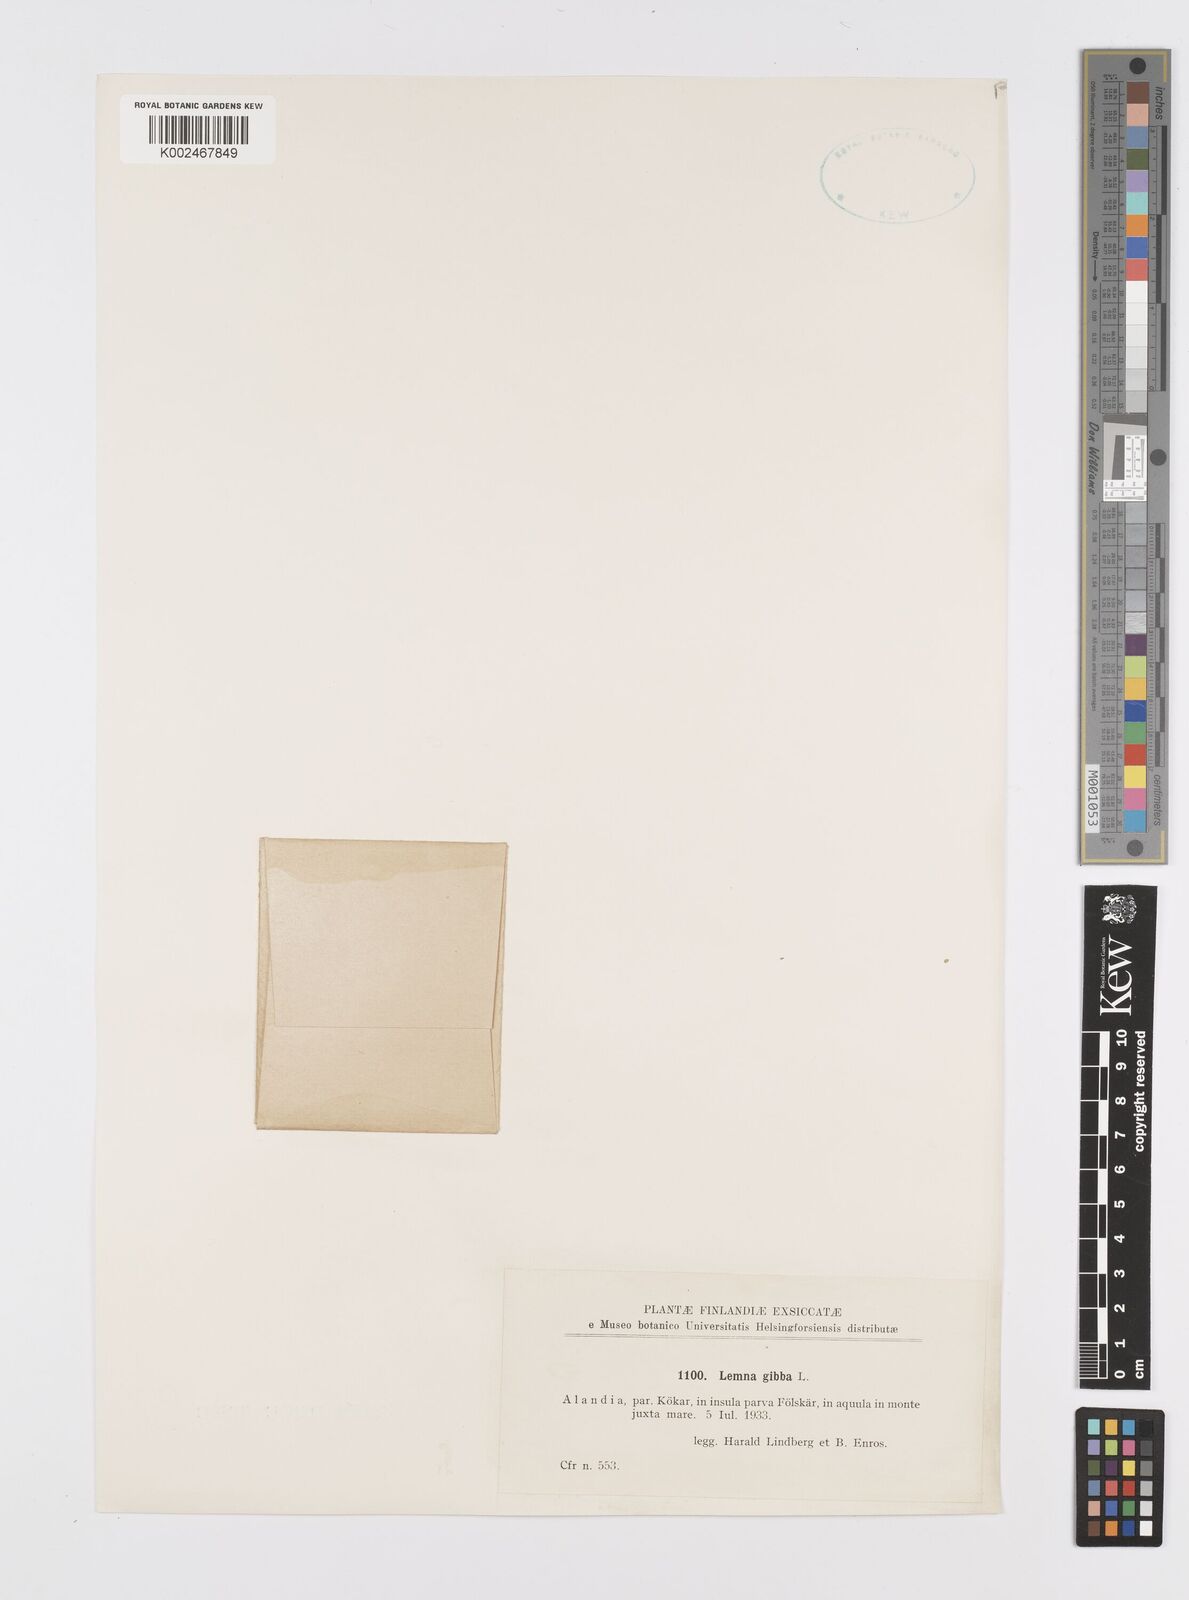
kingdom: Plantae
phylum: Tracheophyta
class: Liliopsida
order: Alismatales
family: Araceae
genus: Lemna
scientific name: Lemna gibba
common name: Fat duckweed
